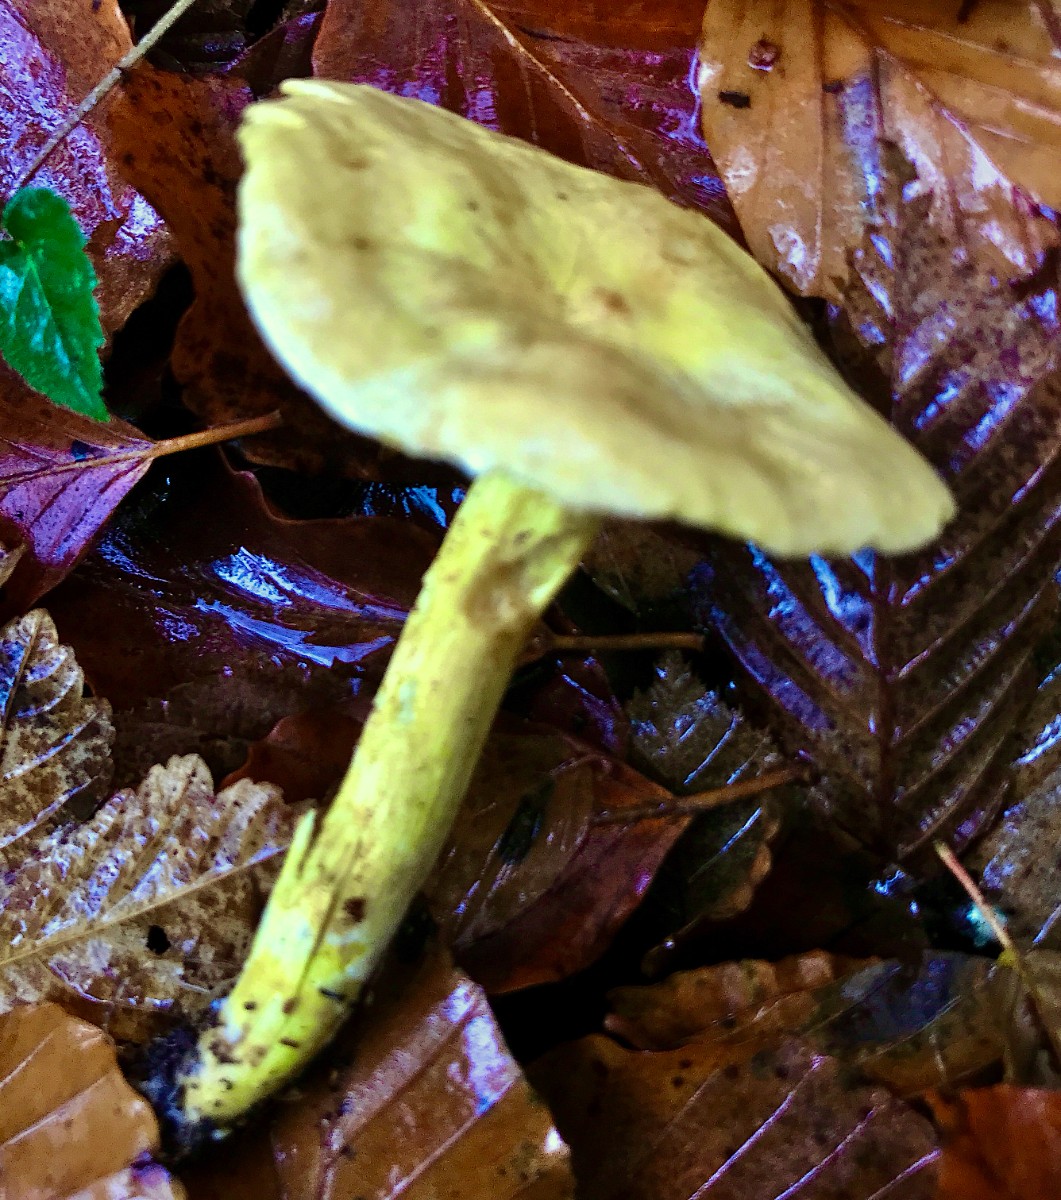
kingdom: Fungi
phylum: Basidiomycota
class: Agaricomycetes
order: Agaricales
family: Tricholomataceae
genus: Tricholoma
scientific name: Tricholoma sulphureum
